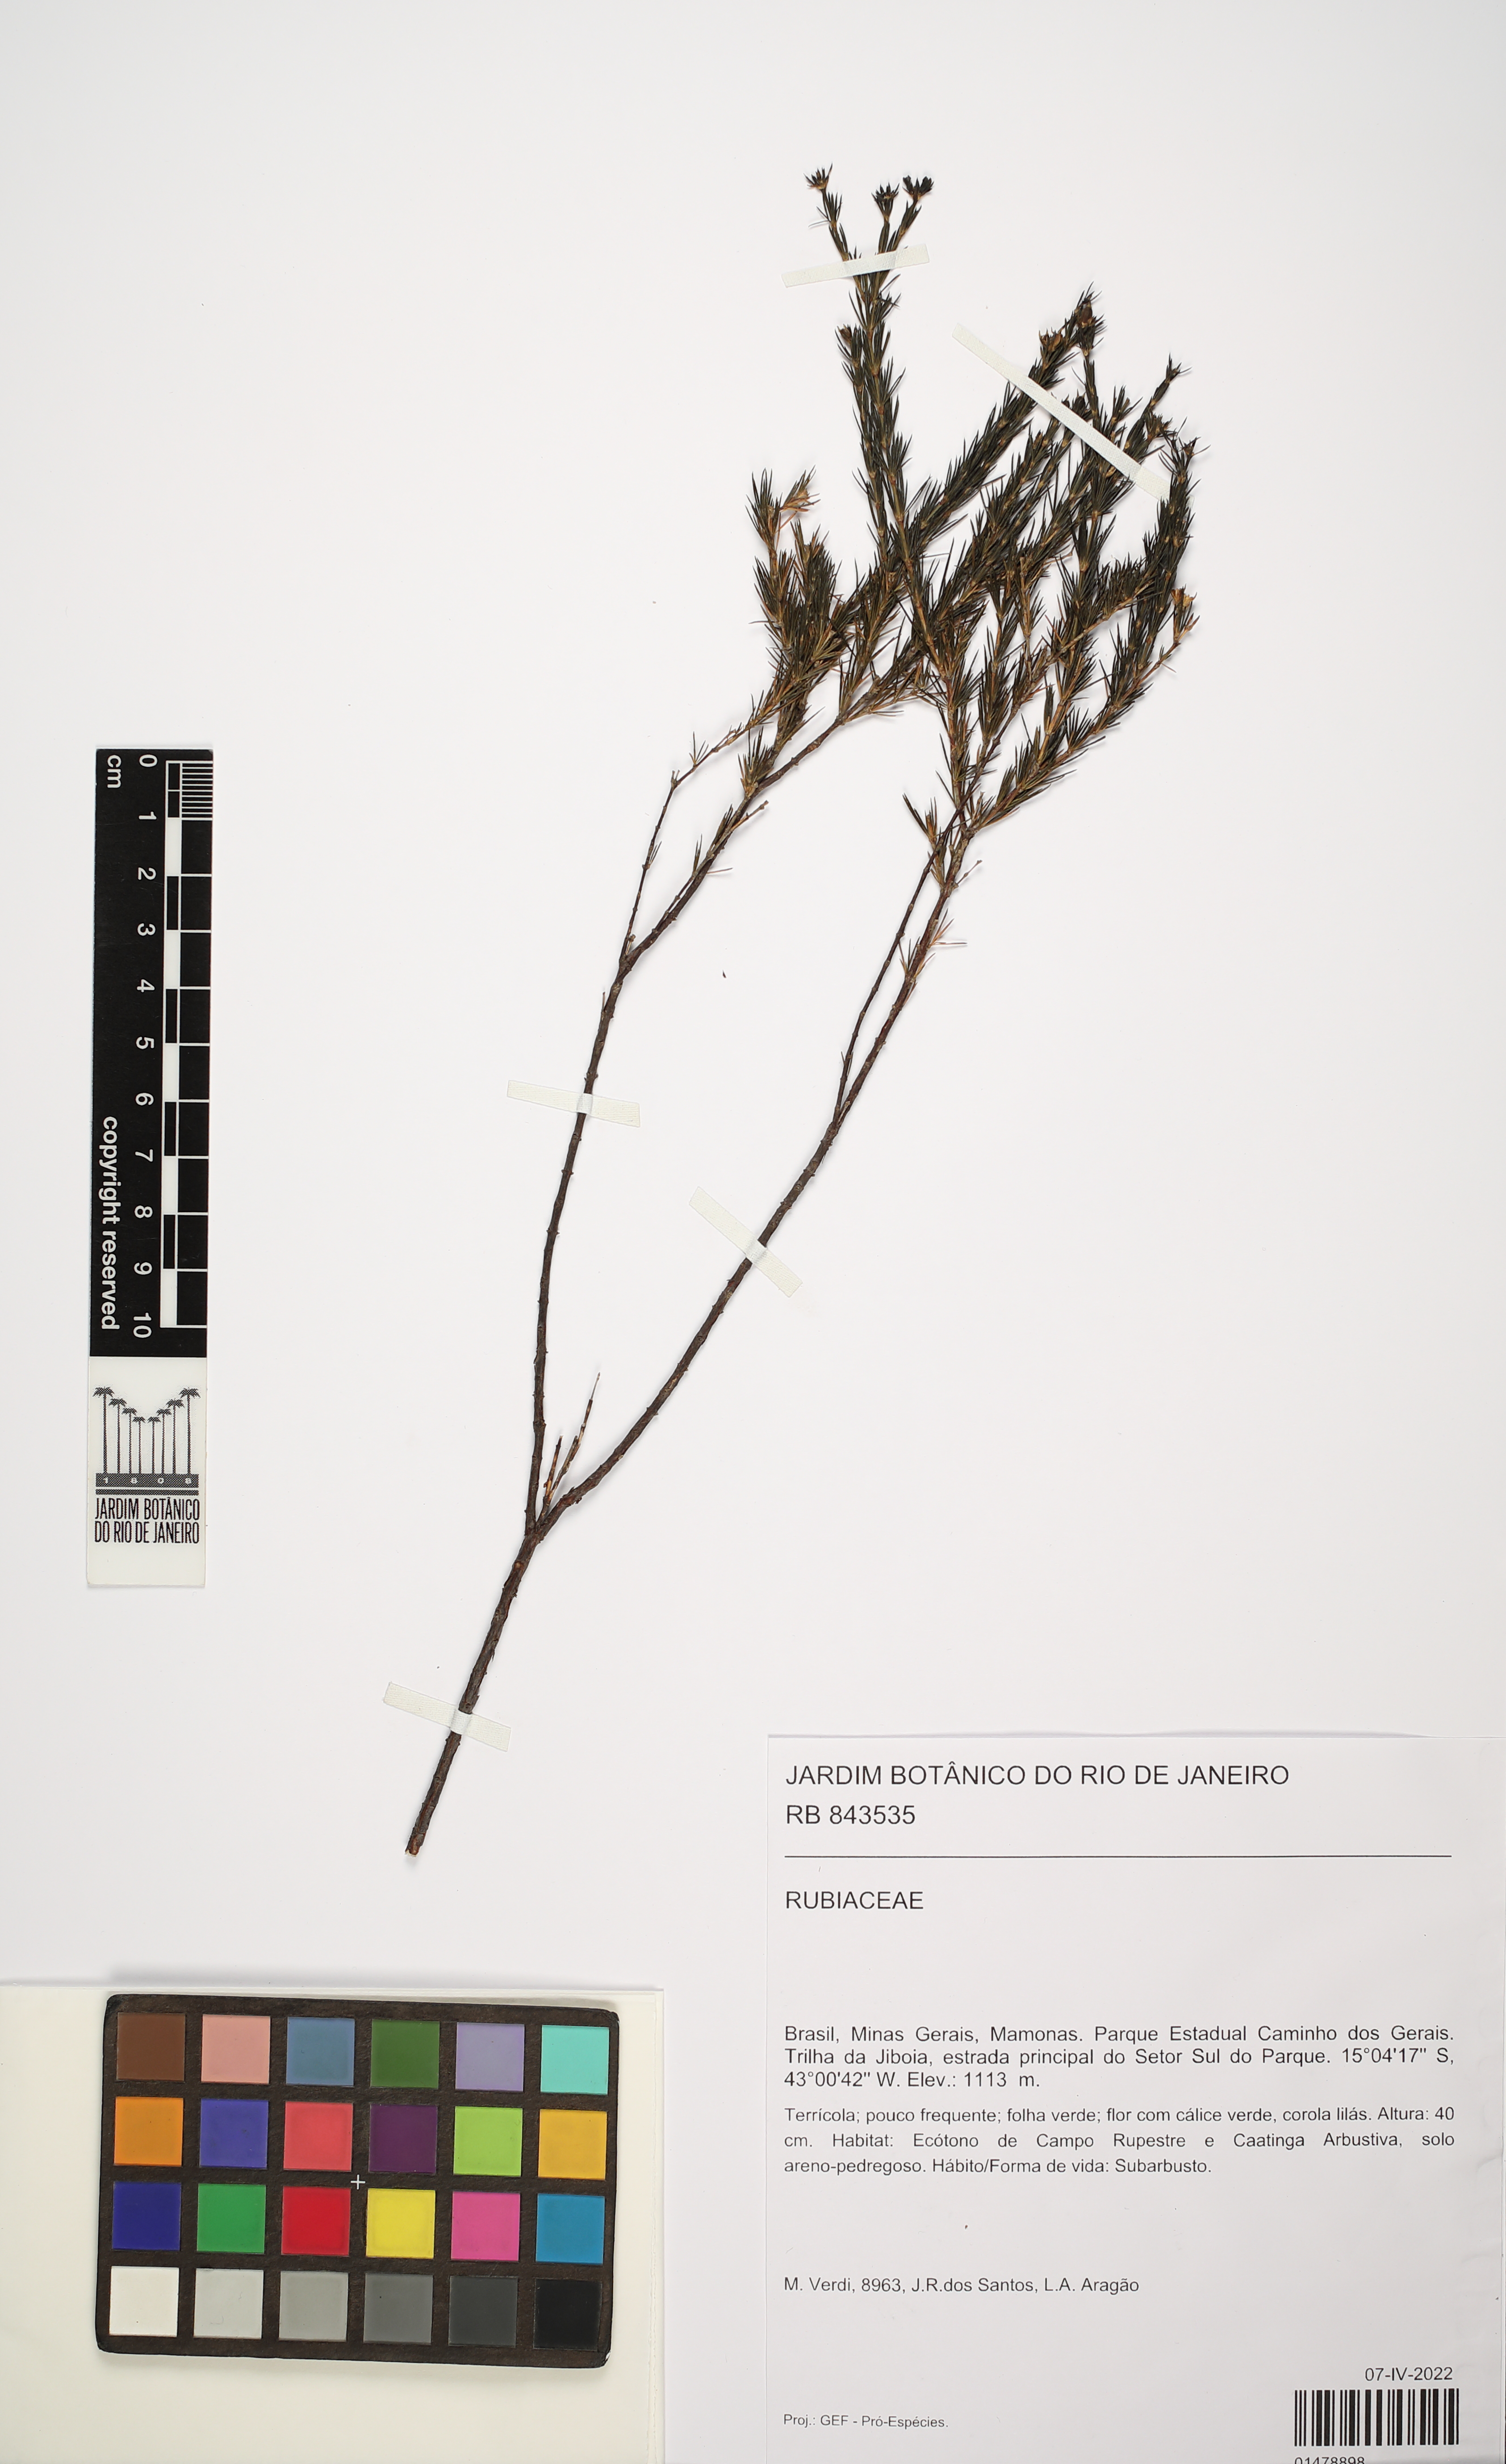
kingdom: Plantae
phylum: Tracheophyta
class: Magnoliopsida
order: Gentianales
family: Rubiaceae
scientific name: Rubiaceae
